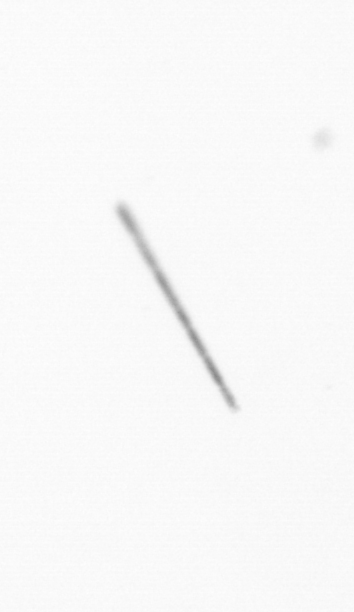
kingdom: Chromista
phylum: Ochrophyta
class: Bacillariophyceae
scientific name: Bacillariophyceae
